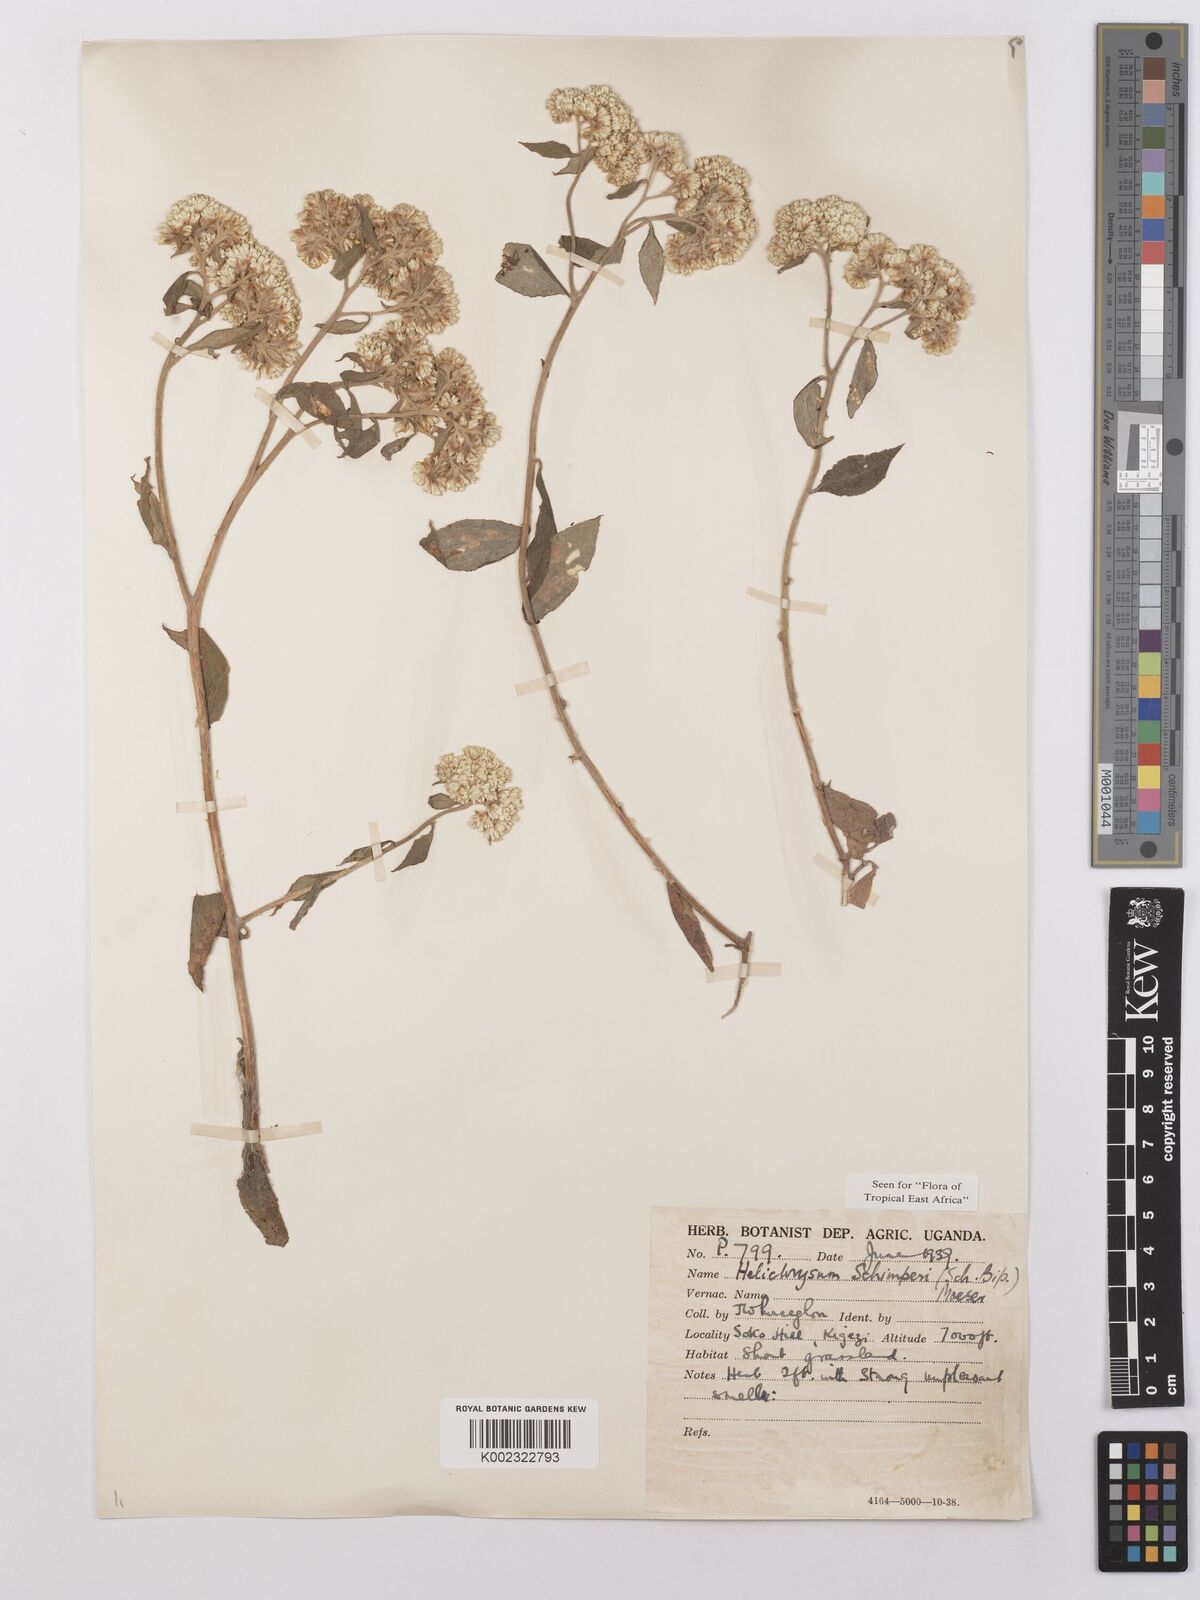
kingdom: Plantae
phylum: Tracheophyta
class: Magnoliopsida
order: Asterales
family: Asteraceae
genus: Helichrysum
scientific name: Helichrysum schimperi
